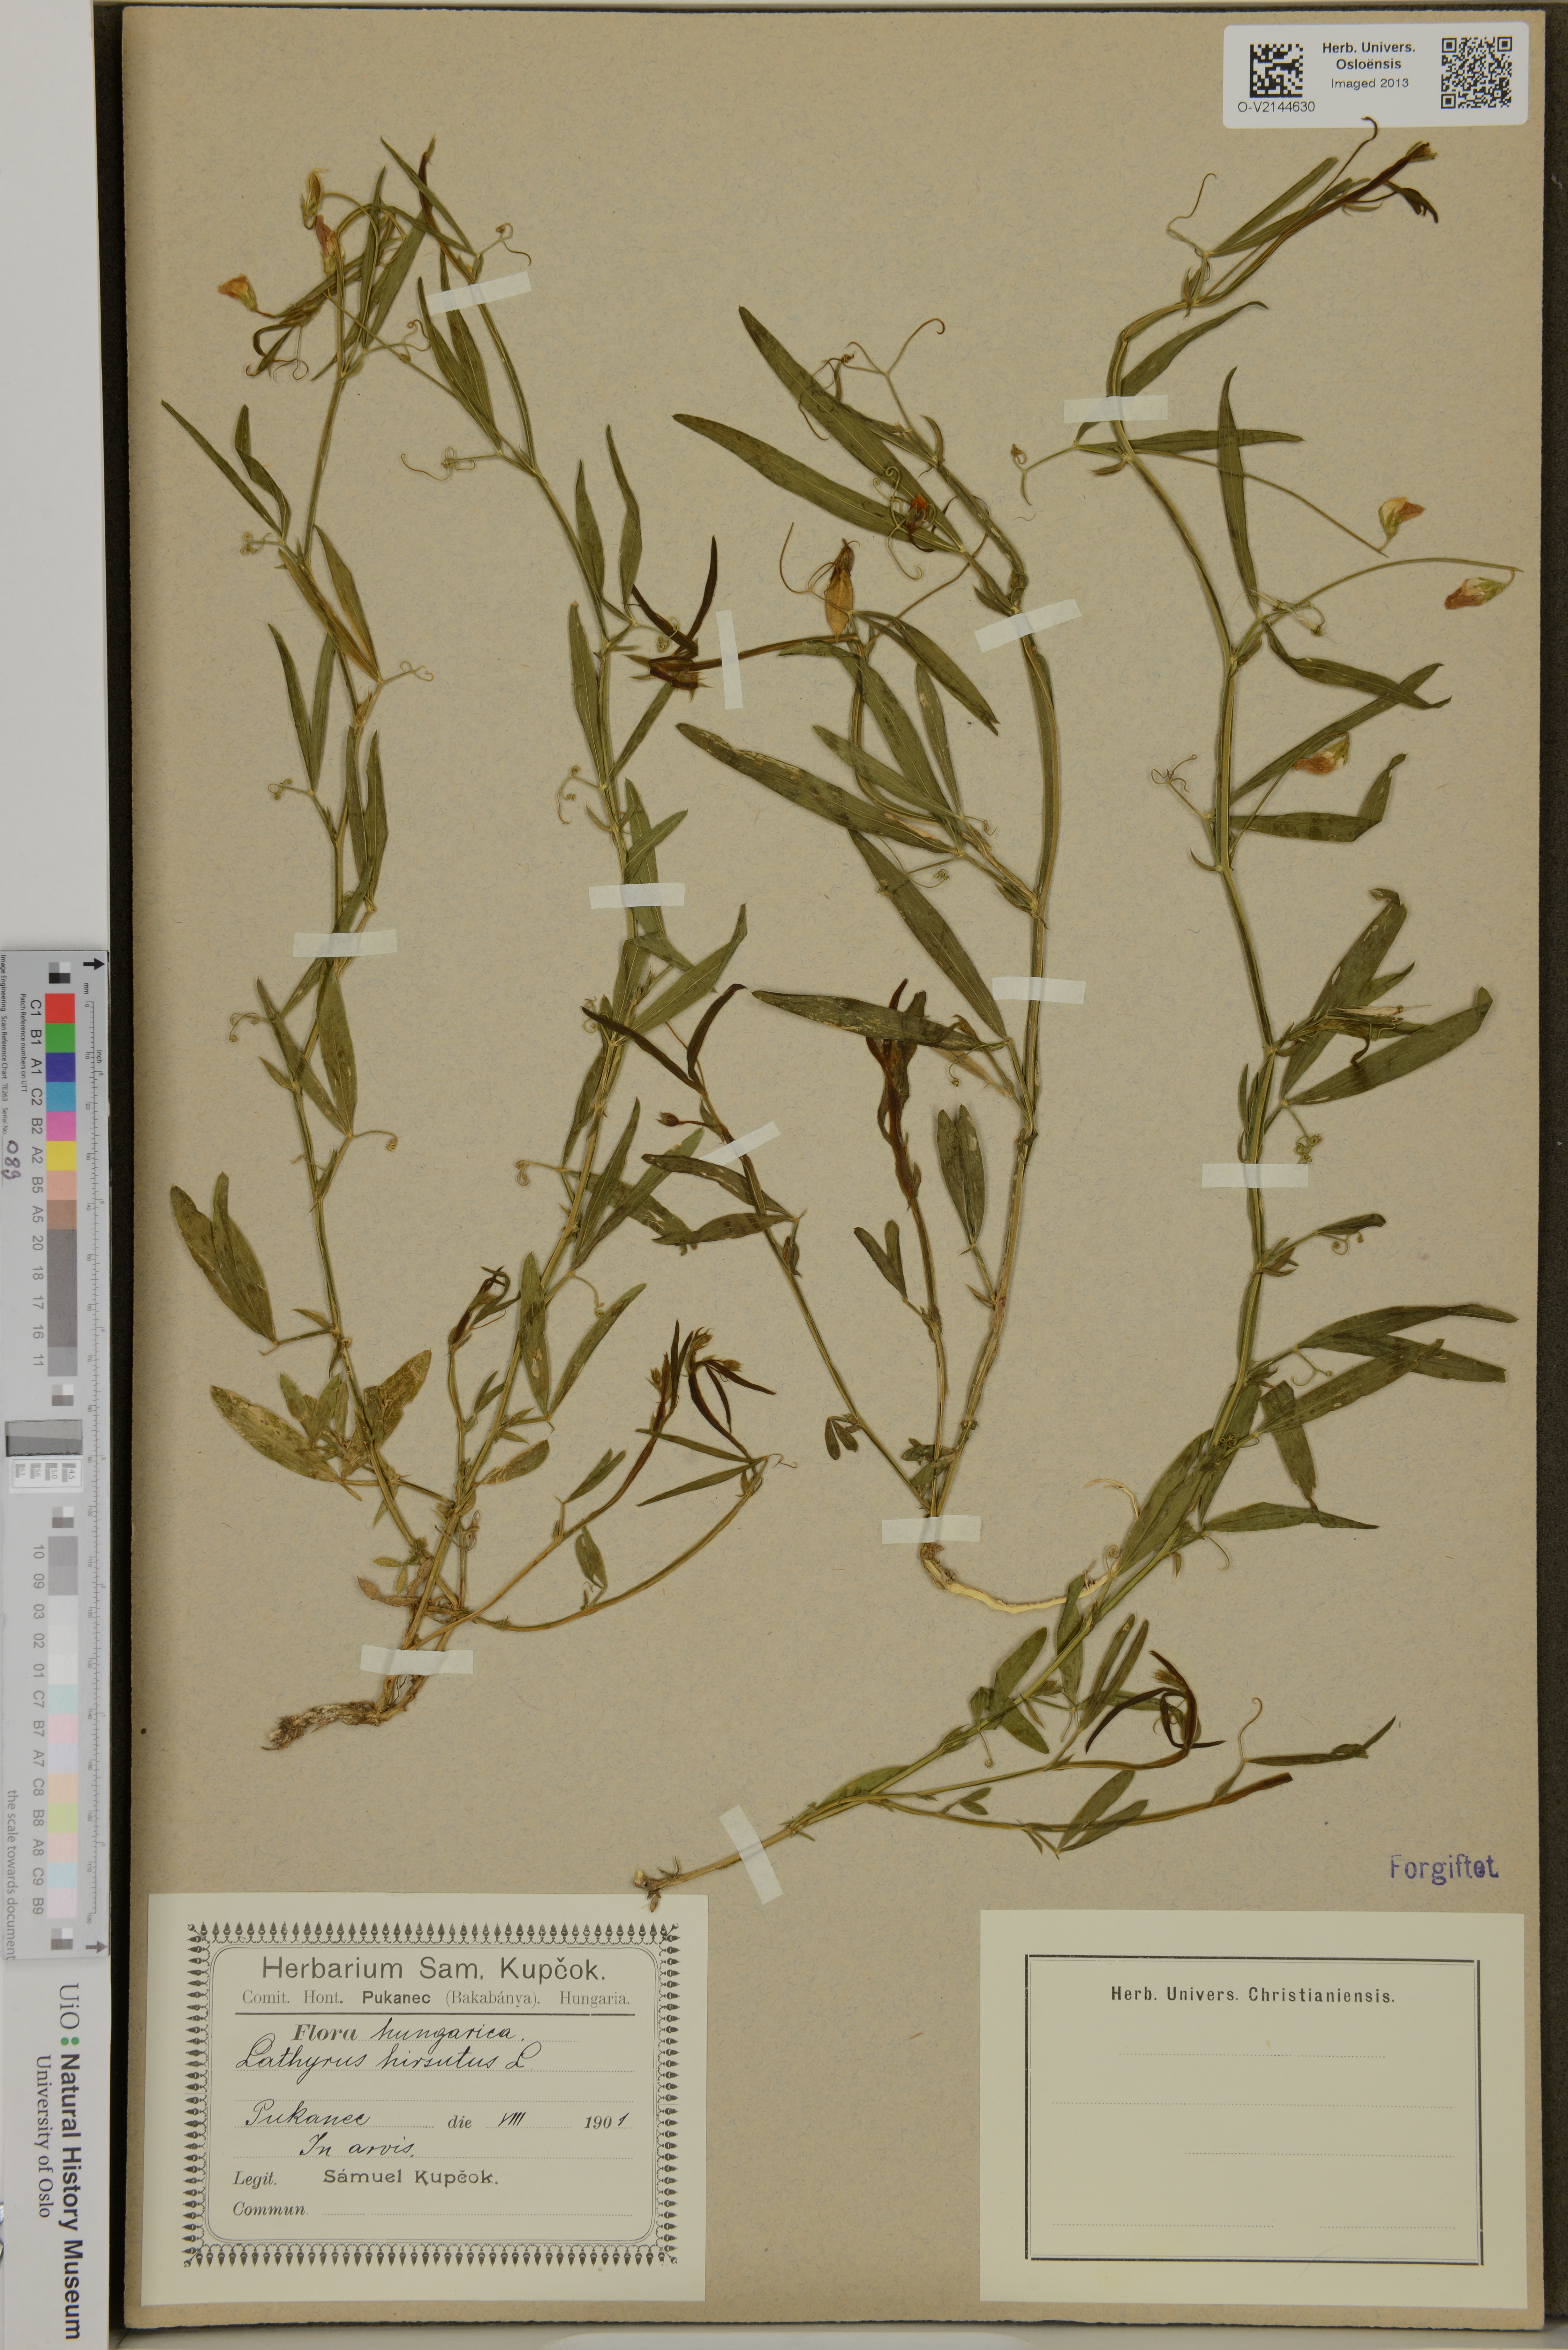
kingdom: Plantae
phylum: Tracheophyta
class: Magnoliopsida
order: Fabales
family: Fabaceae
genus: Lathyrus
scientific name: Lathyrus hirsutus
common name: Hairy vetchling
